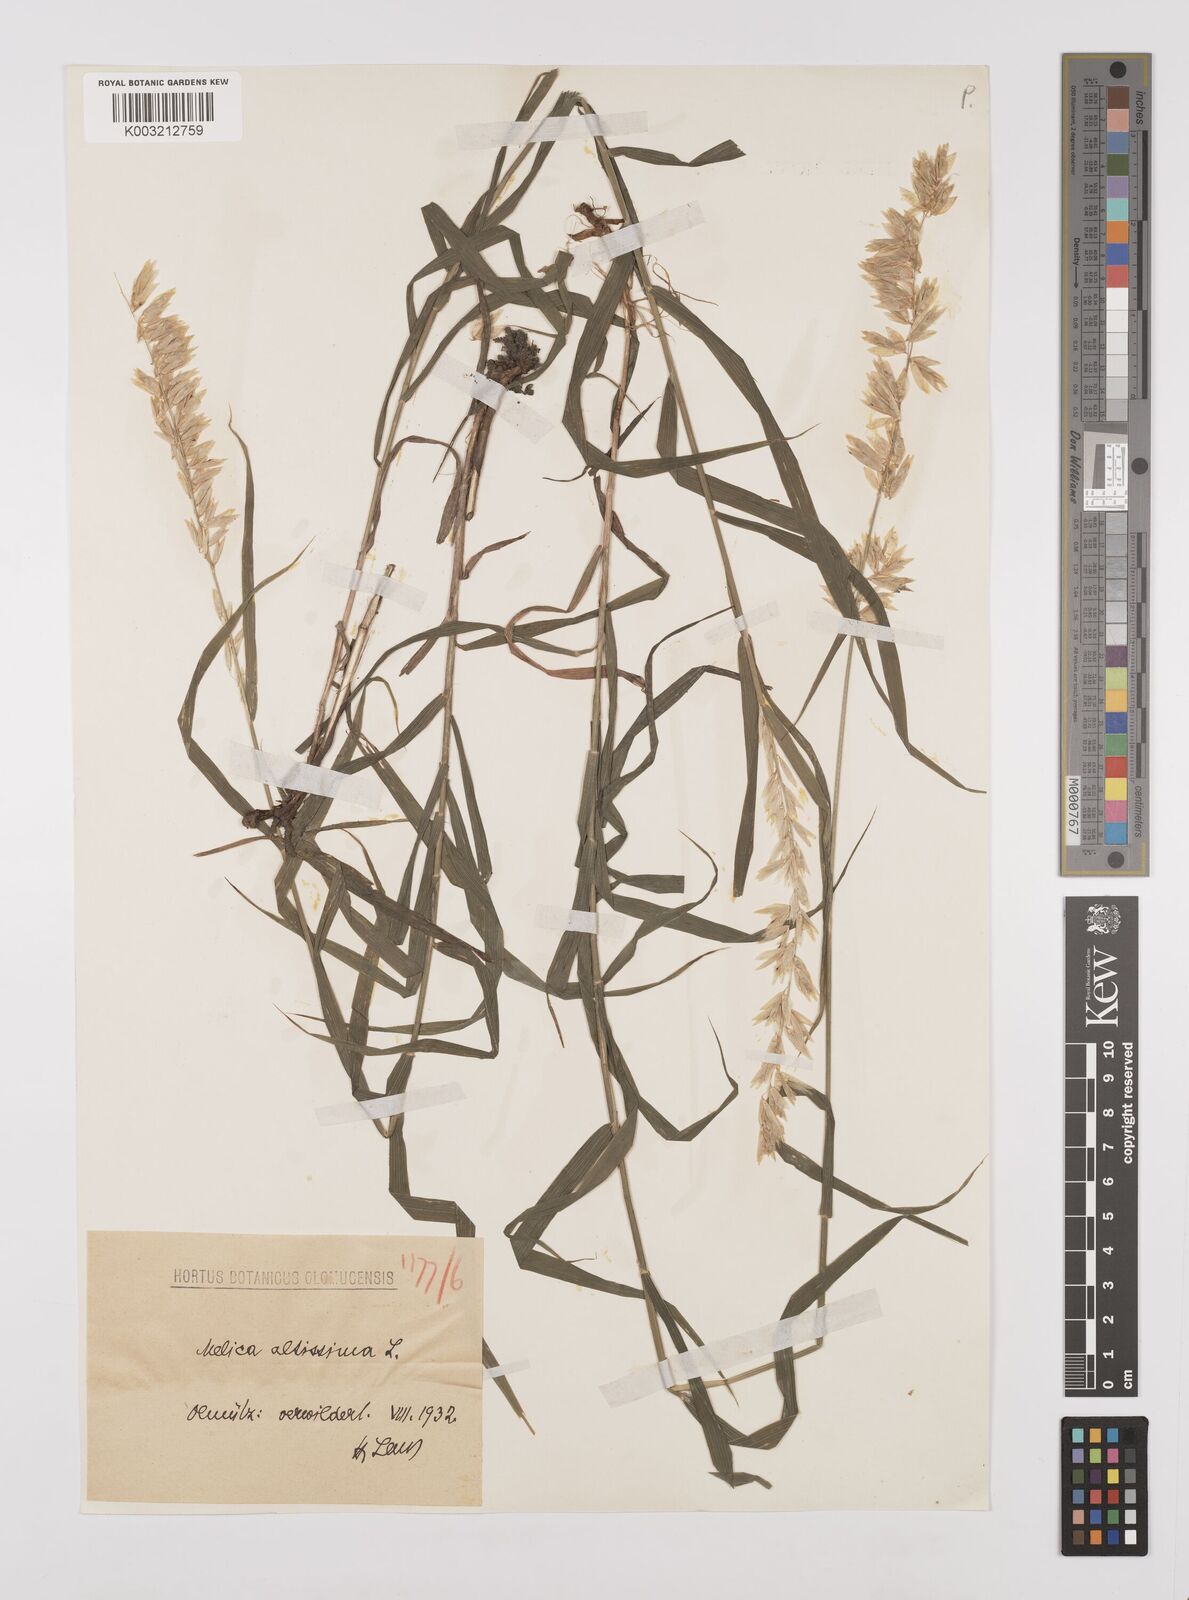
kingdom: Plantae
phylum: Tracheophyta
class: Liliopsida
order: Poales
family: Poaceae
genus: Melica
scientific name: Melica altissima
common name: Siberian melicgrass
